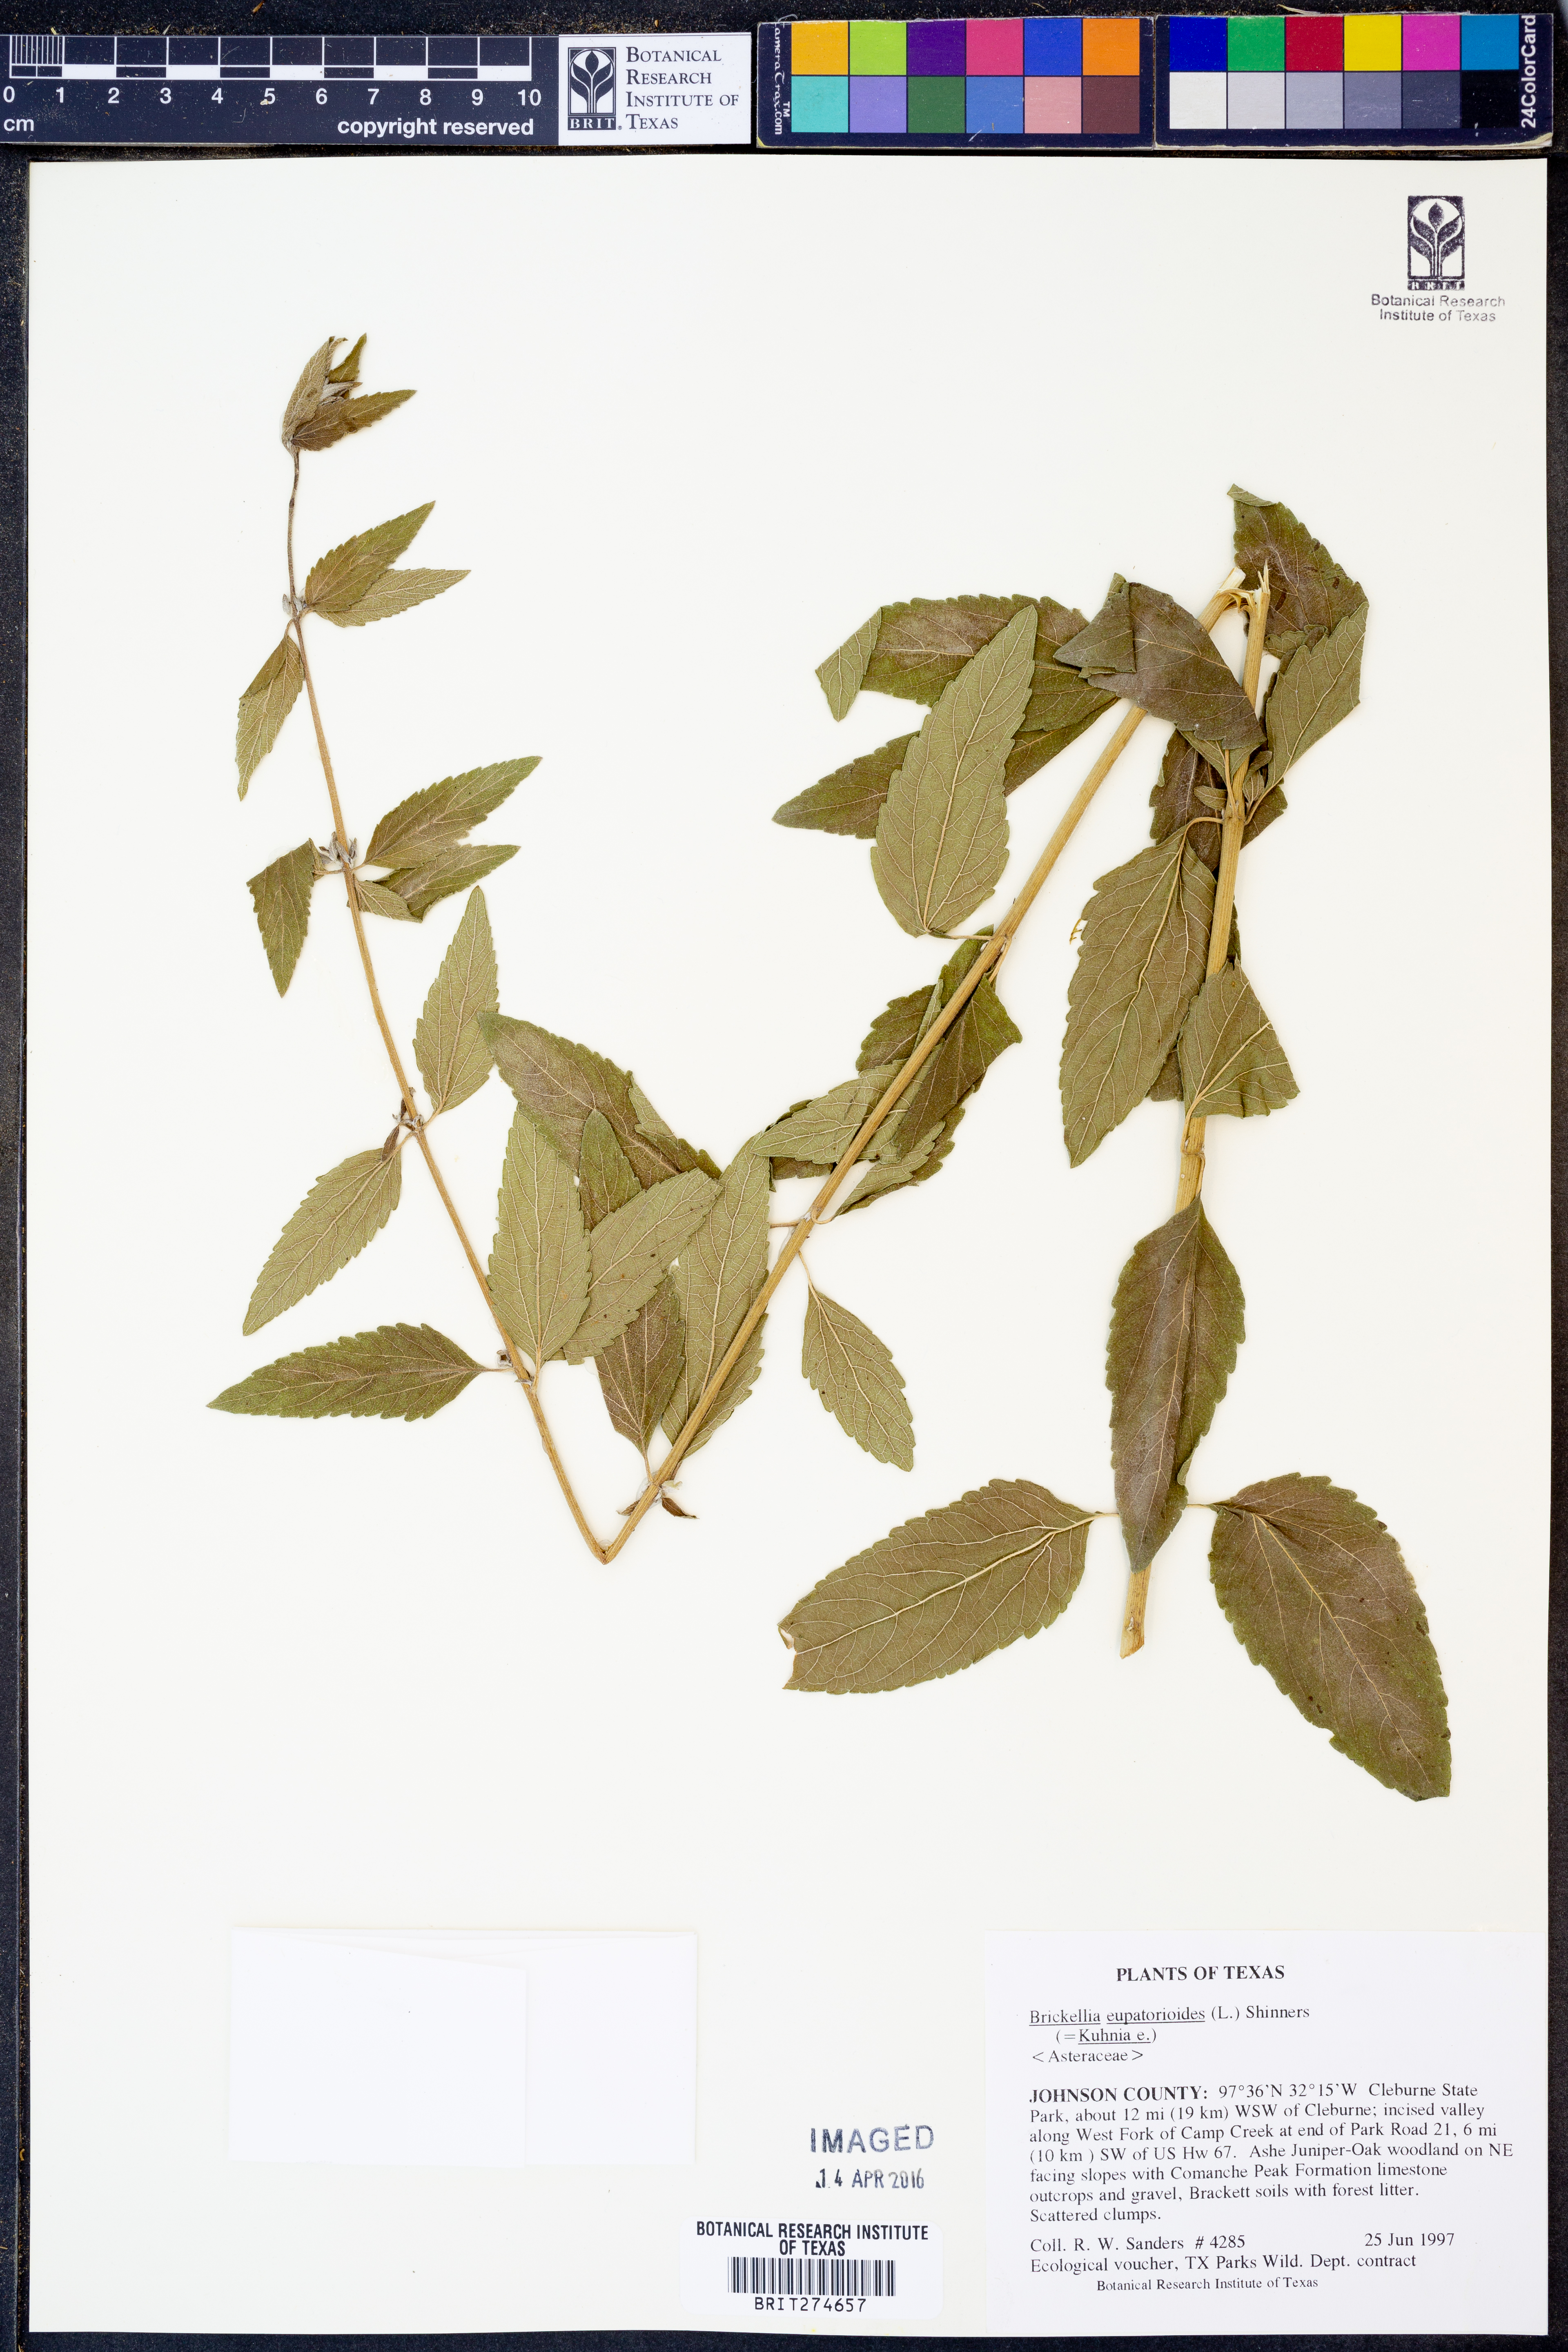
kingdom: Plantae
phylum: Tracheophyta
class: Magnoliopsida
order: Asterales
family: Asteraceae
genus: Brickellia
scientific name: Brickellia eupatorioides
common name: False boneset
